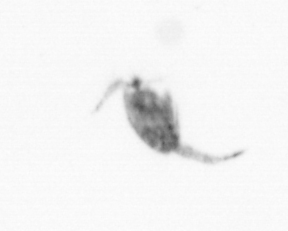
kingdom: Animalia
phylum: Arthropoda
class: Copepoda
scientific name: Copepoda
